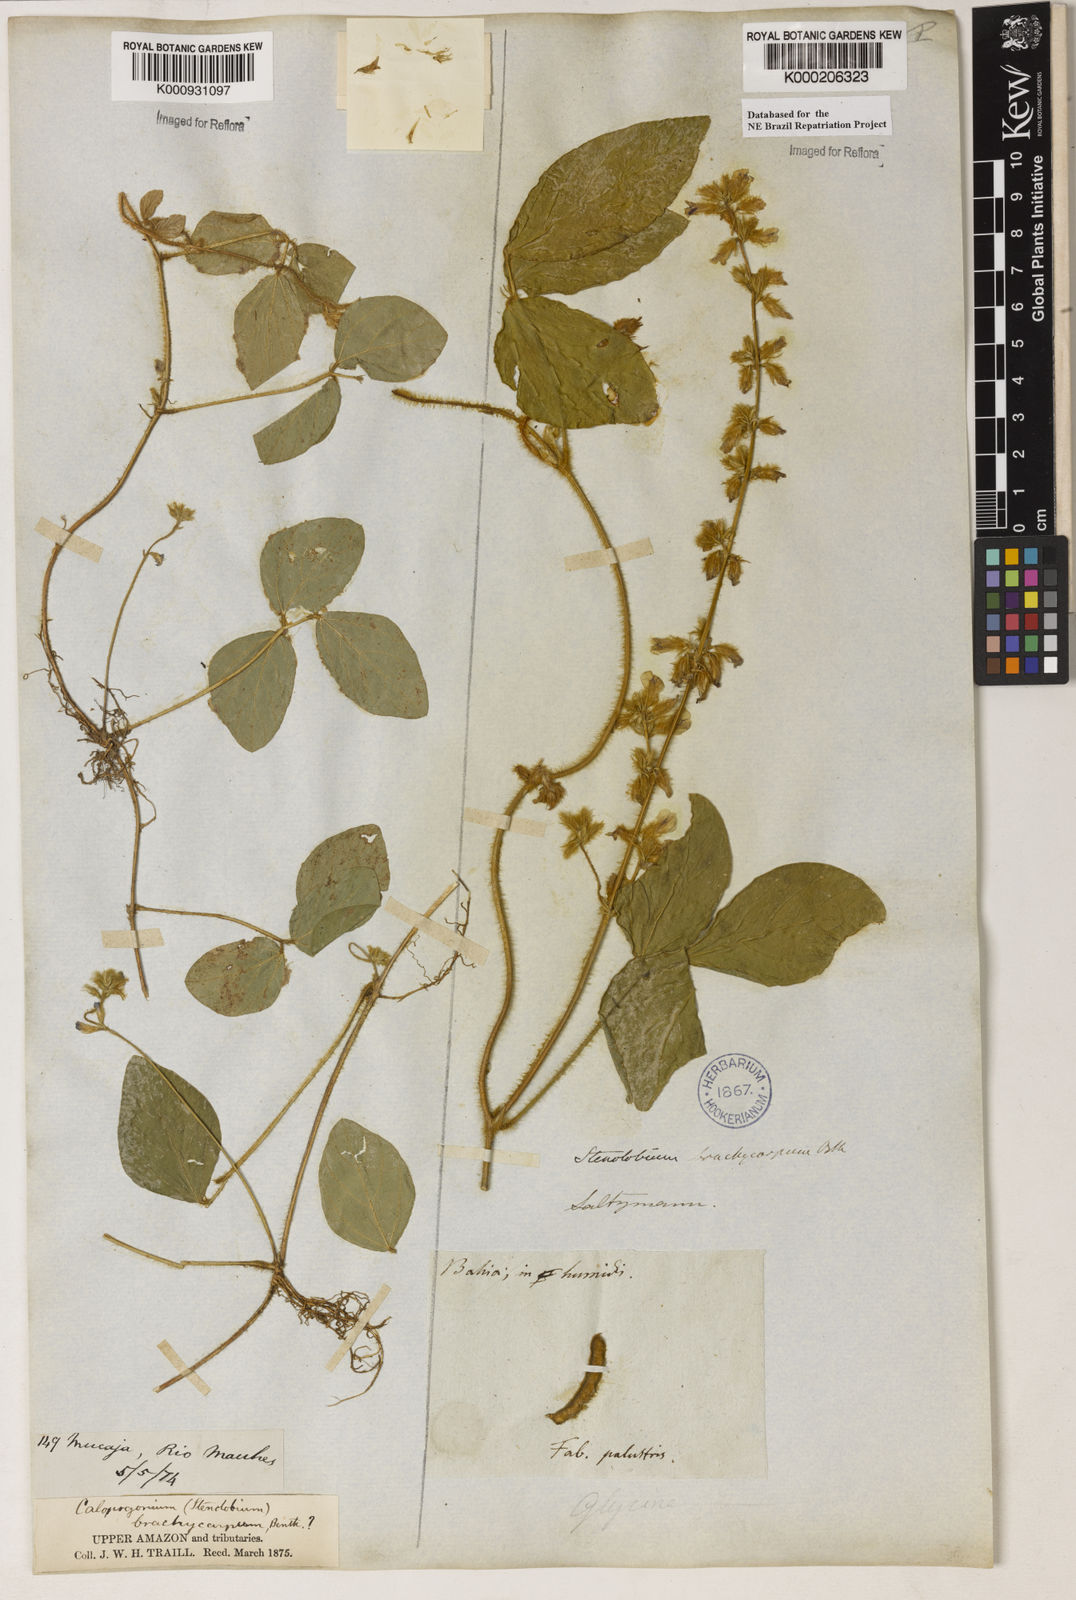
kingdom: Plantae
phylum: Tracheophyta
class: Magnoliopsida
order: Fabales
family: Fabaceae
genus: Calopogonium
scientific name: Calopogonium mucunoides
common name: Calopo
